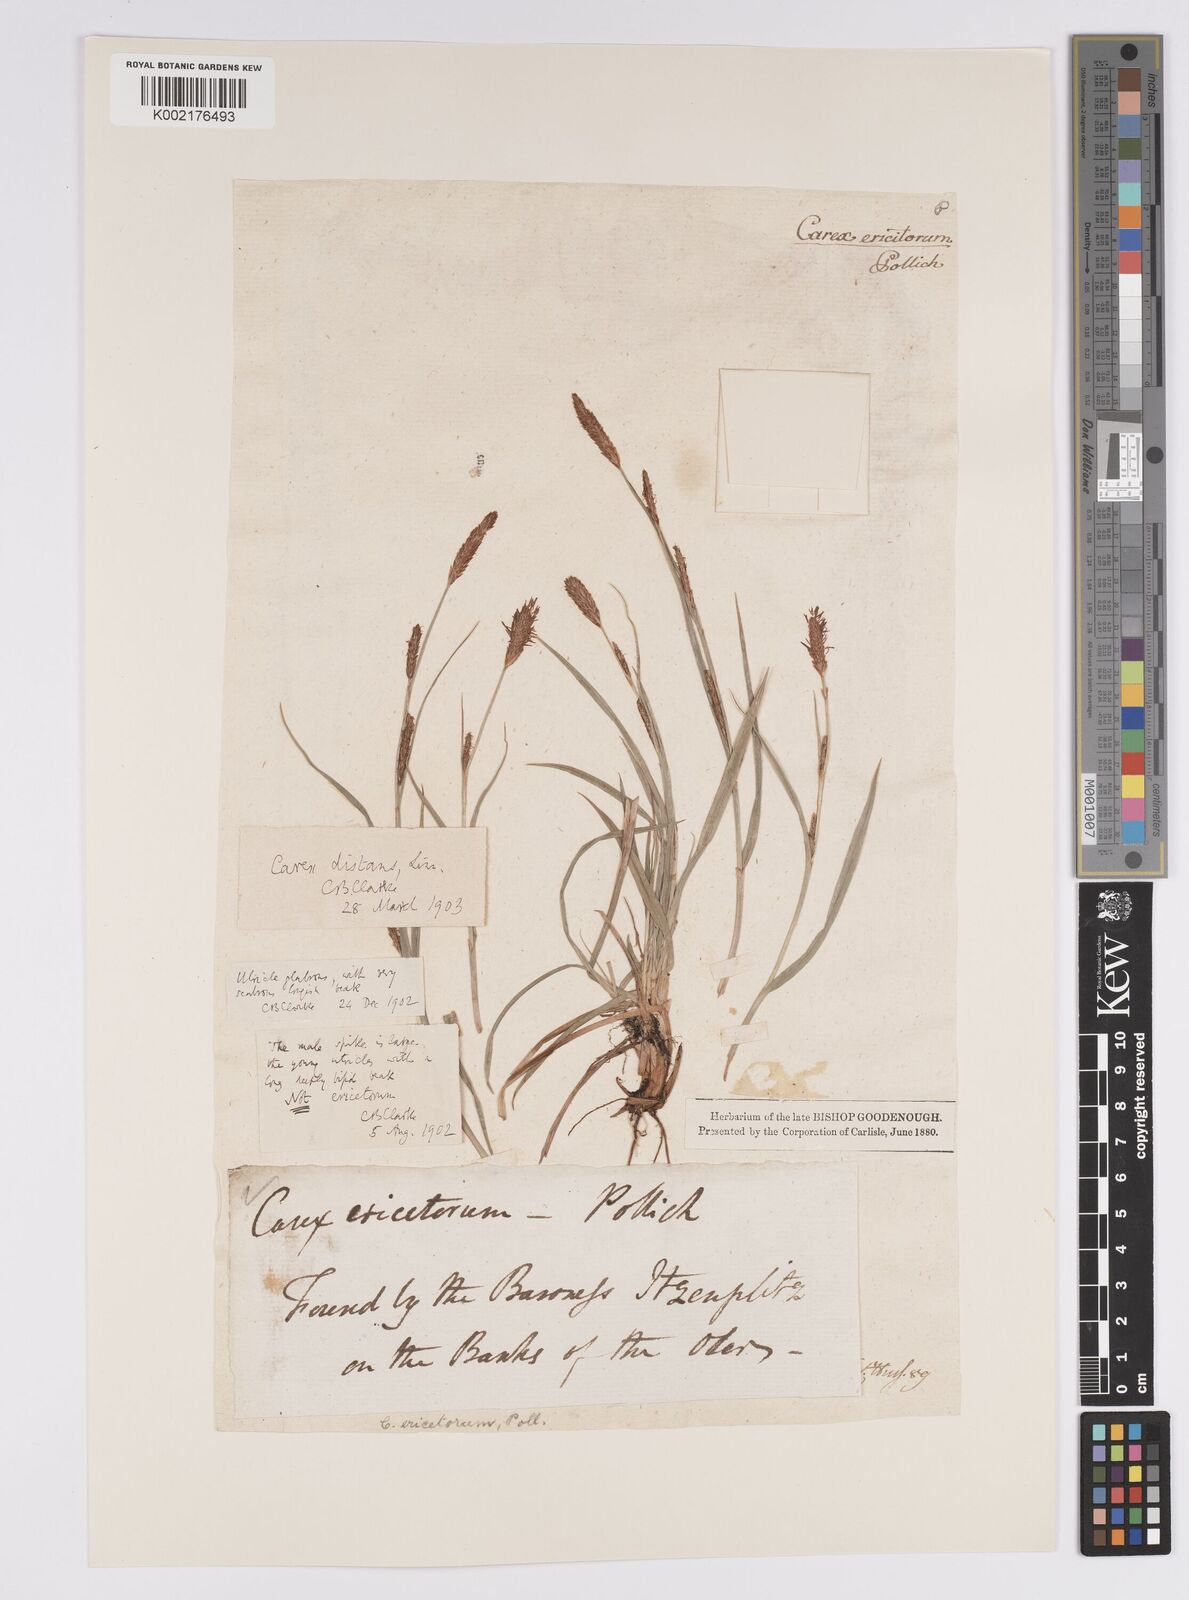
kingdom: Plantae
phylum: Tracheophyta
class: Liliopsida
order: Poales
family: Cyperaceae
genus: Carex
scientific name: Carex distans
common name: Distant sedge
